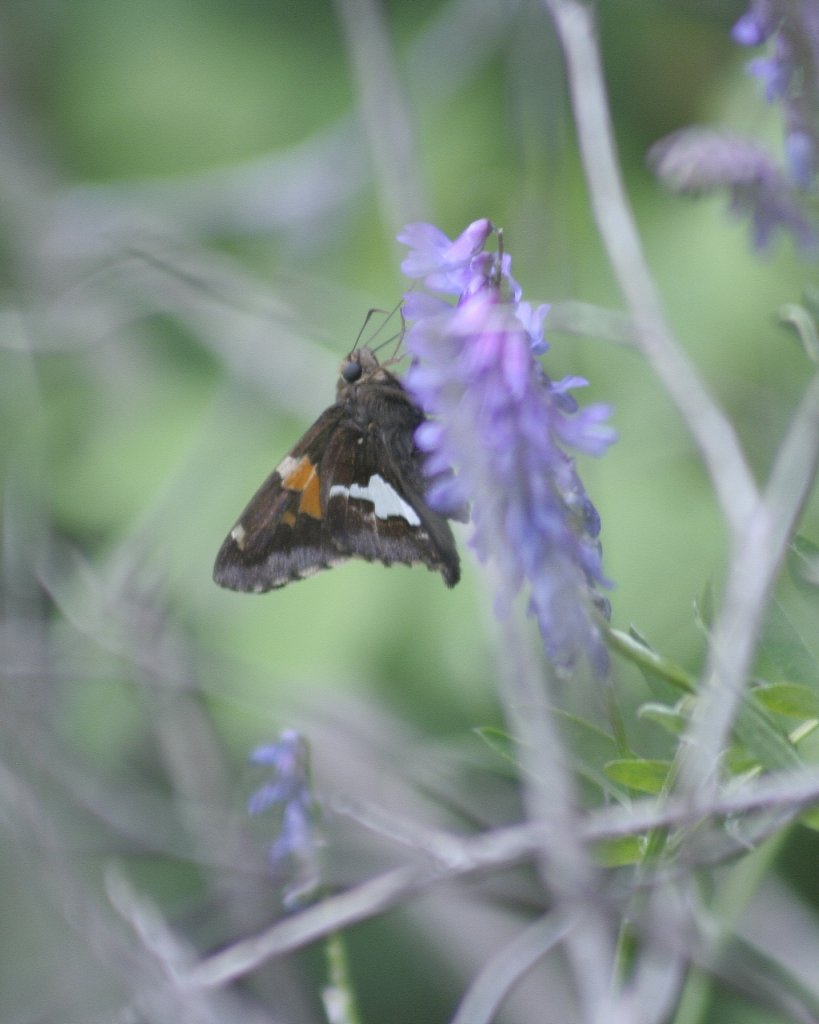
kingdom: Animalia
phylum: Arthropoda
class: Insecta
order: Lepidoptera
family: Hesperiidae
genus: Epargyreus
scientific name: Epargyreus clarus
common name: Silver-spotted Skipper
